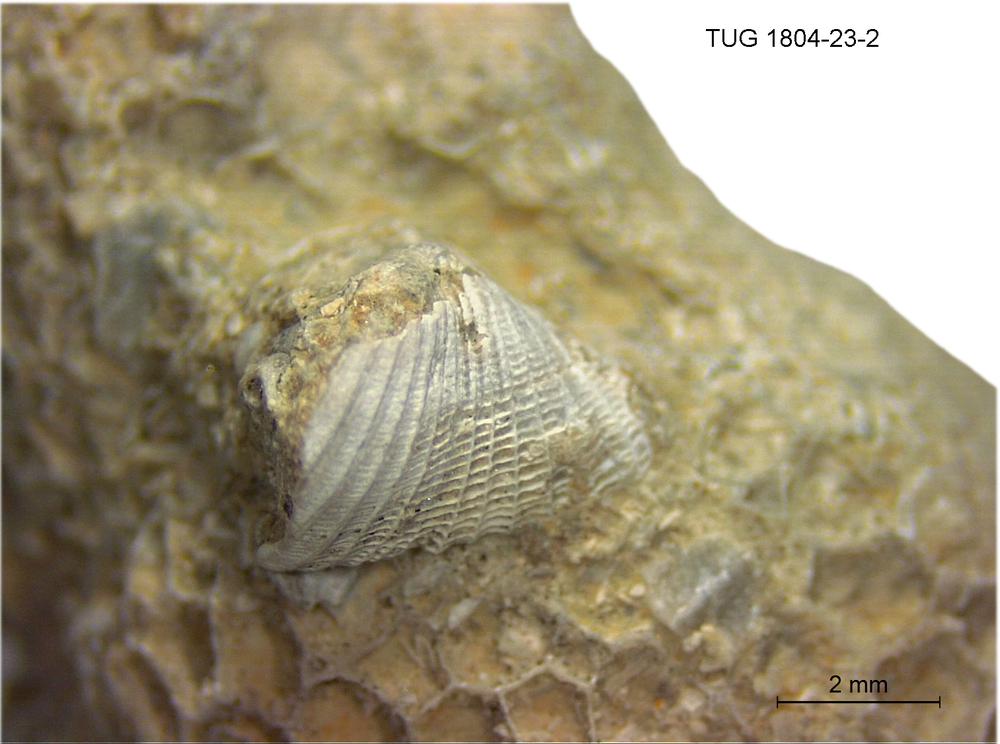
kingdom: Animalia
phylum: Mollusca
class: Rostroconchia
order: Conocardiida
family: Bransoniidae
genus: Mulceodens
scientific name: Mulceodens
